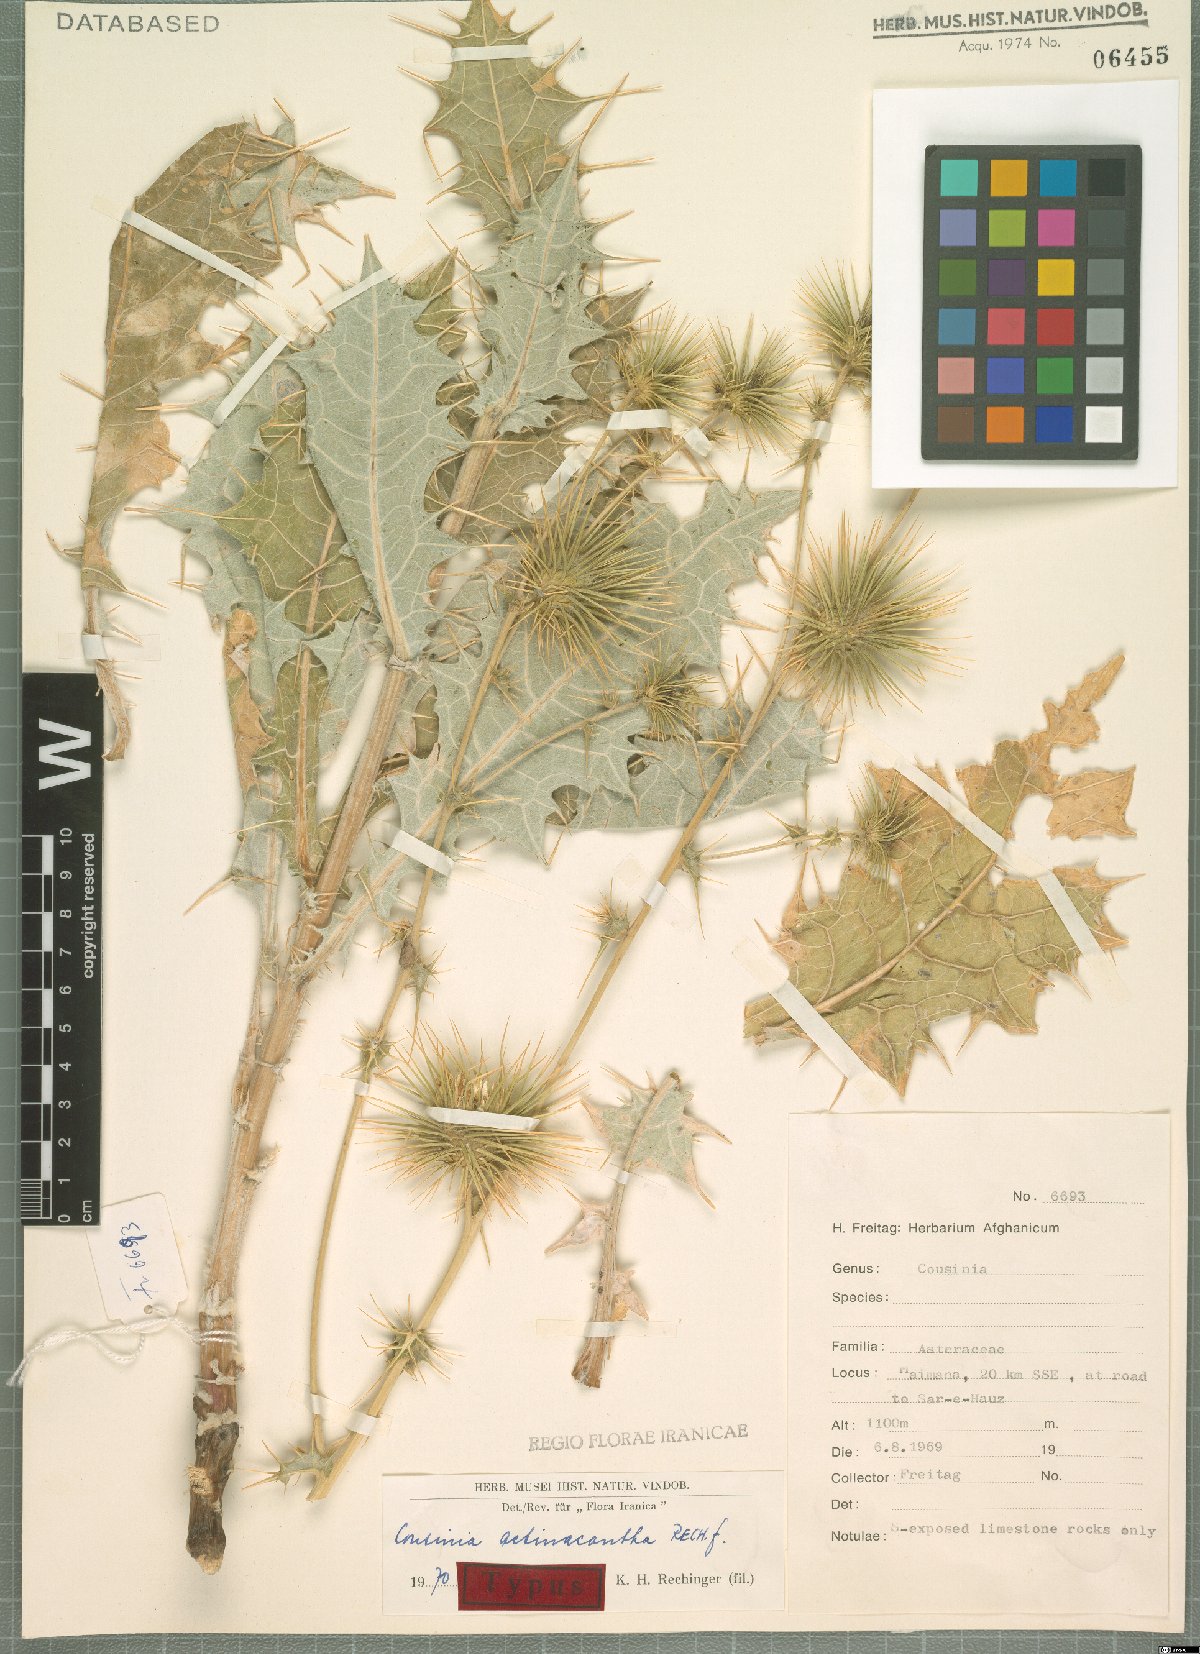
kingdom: Plantae
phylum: Tracheophyta
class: Magnoliopsida
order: Asterales
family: Asteraceae
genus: Cousinia
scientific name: Cousinia actinacantha
